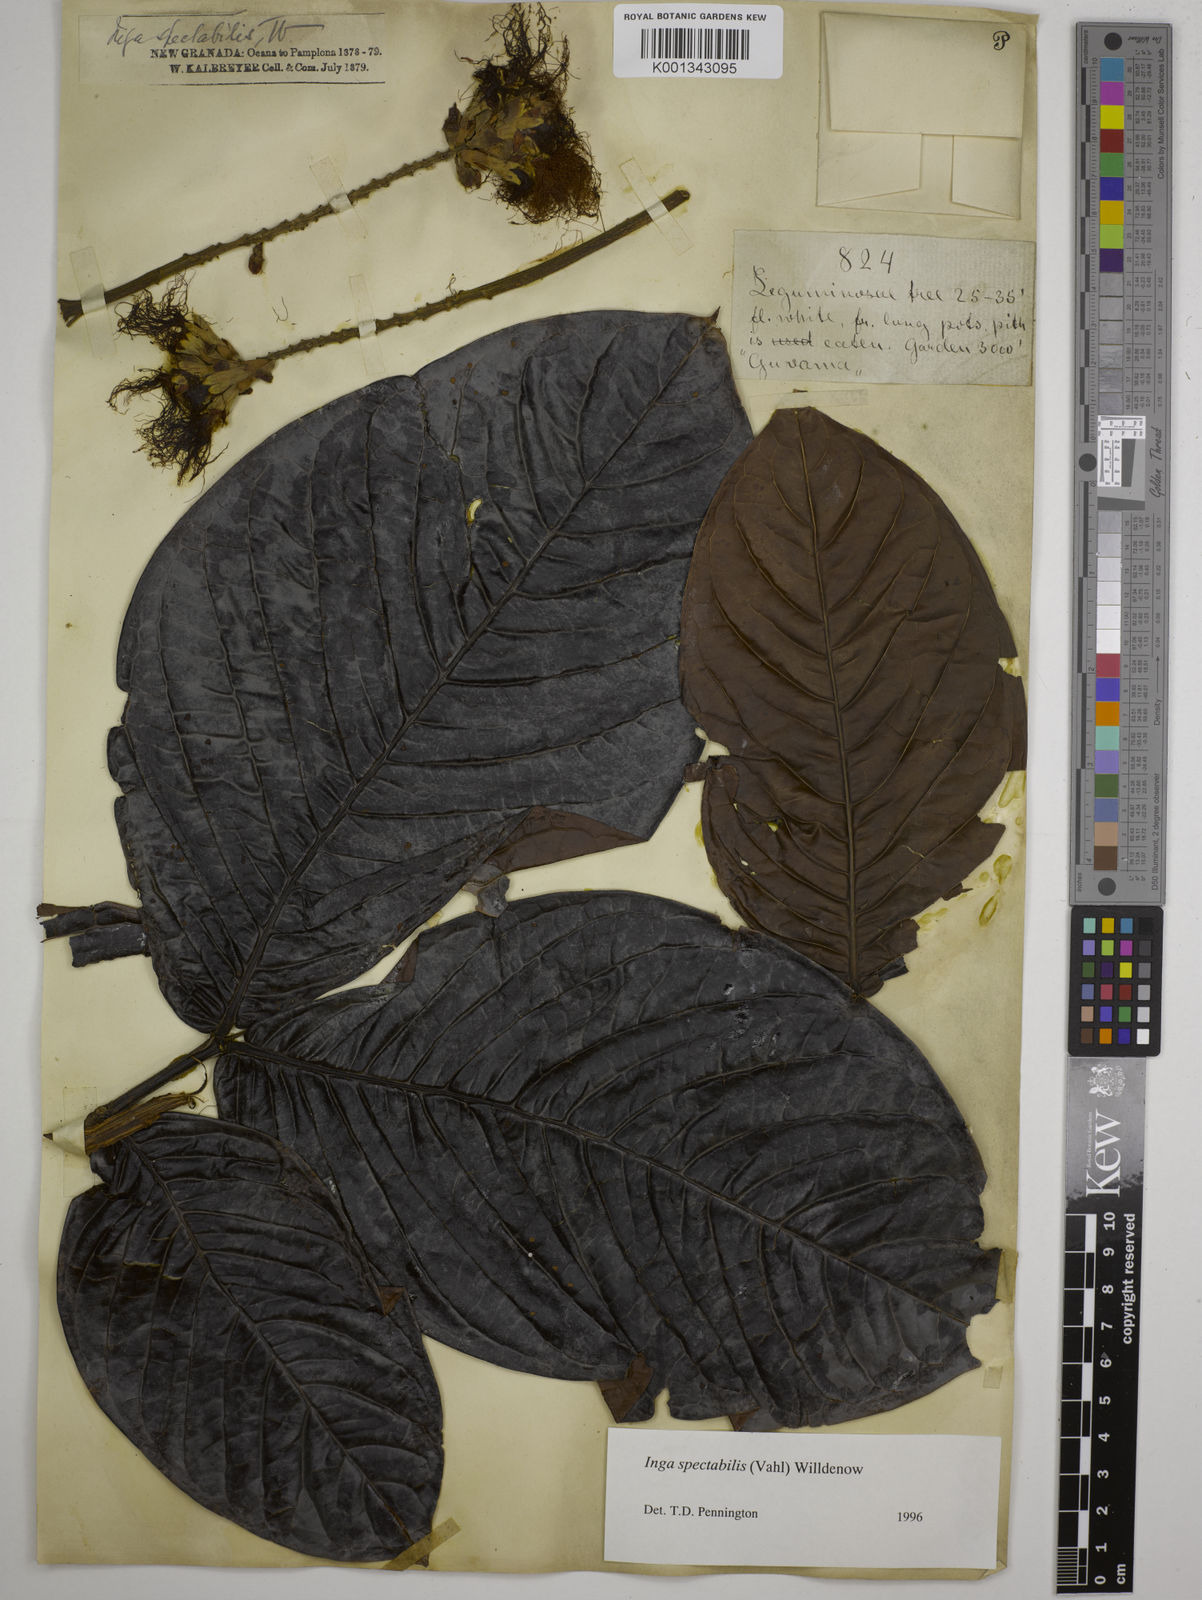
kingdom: Plantae
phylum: Tracheophyta
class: Magnoliopsida
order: Fabales
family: Fabaceae
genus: Inga
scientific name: Inga spectabilis
